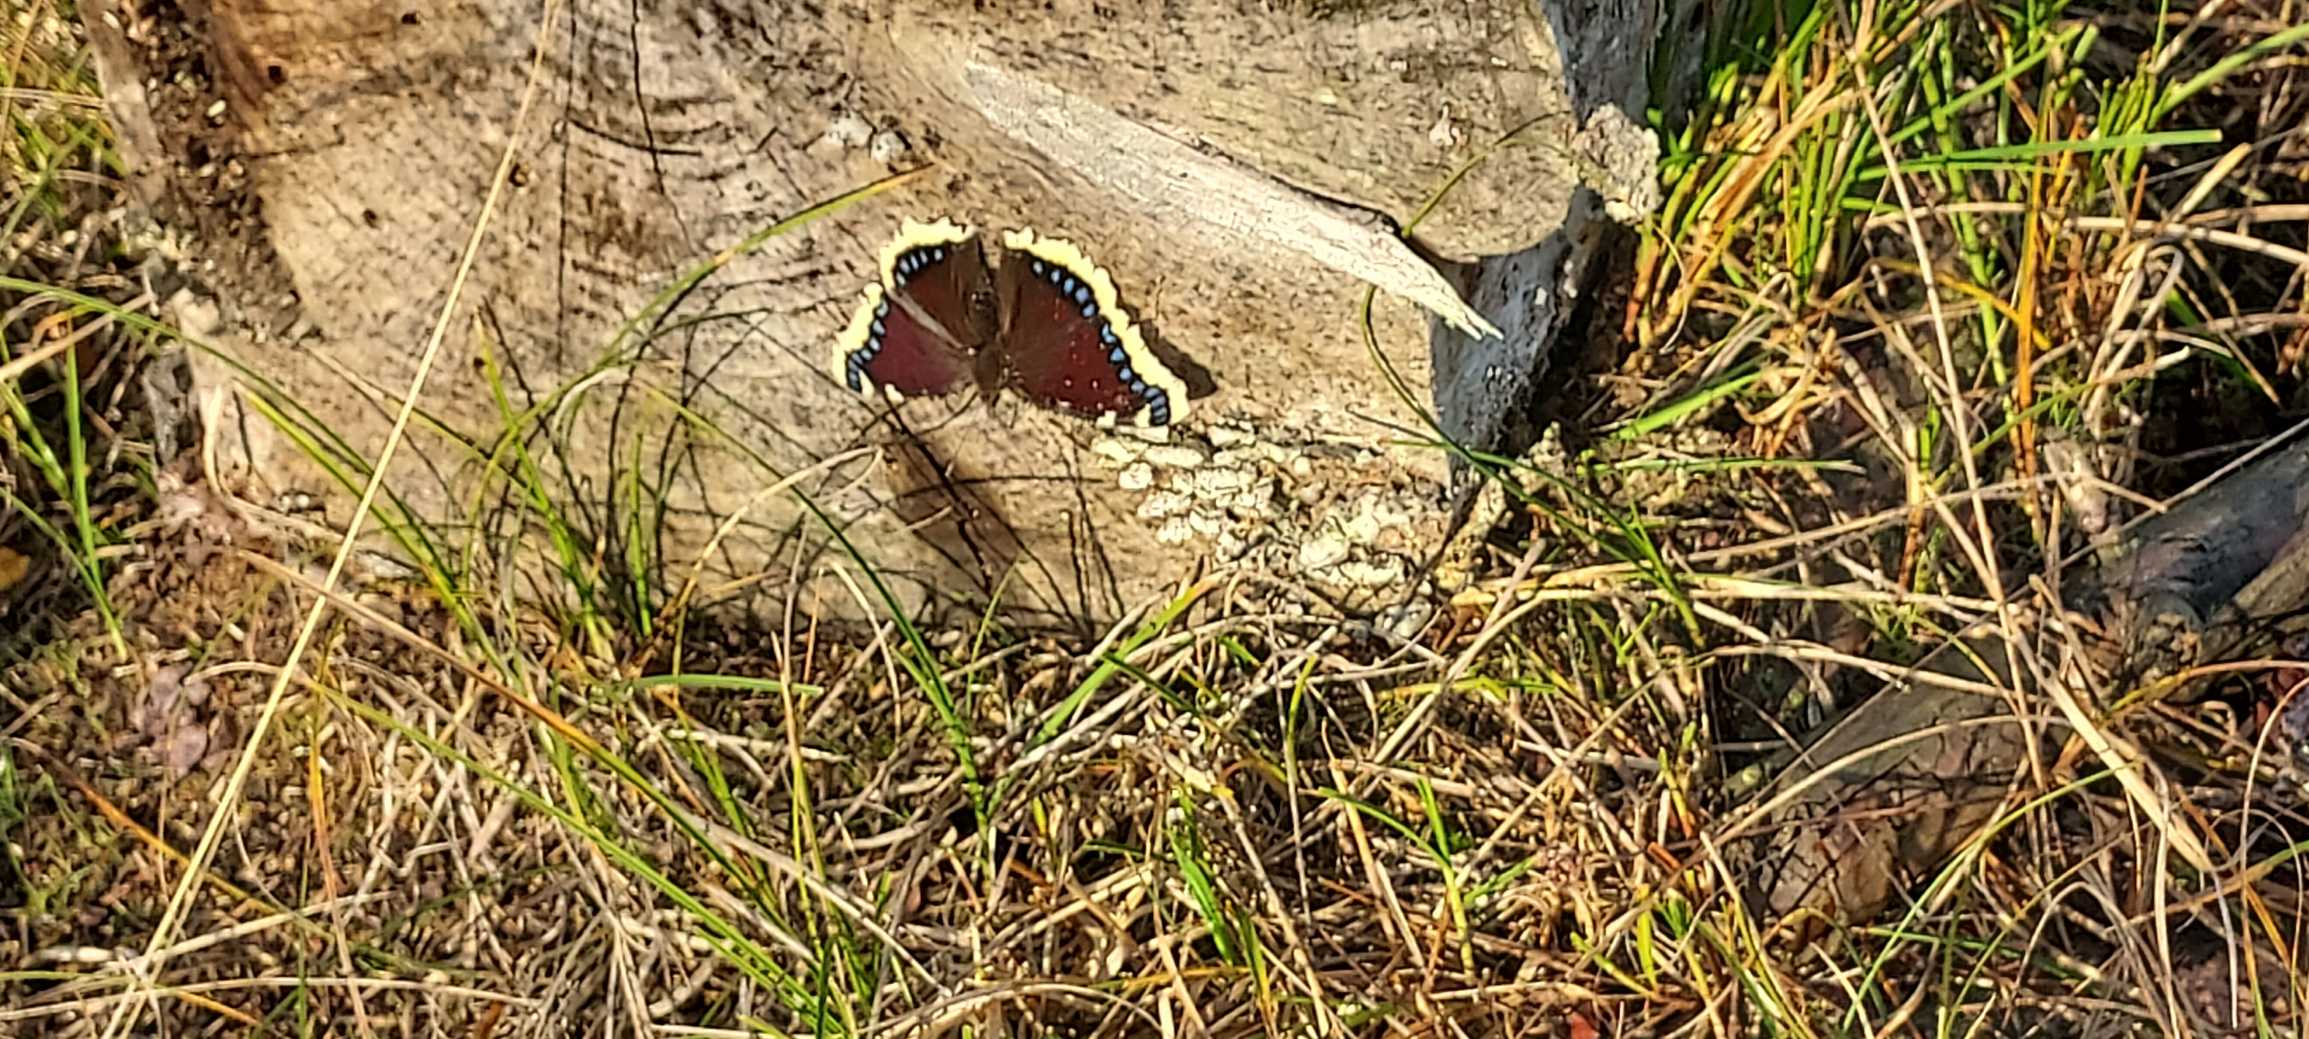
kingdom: Animalia
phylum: Arthropoda
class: Insecta
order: Lepidoptera
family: Nymphalidae
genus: Nymphalis
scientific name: Nymphalis antiopa
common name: Sørgekåbe
